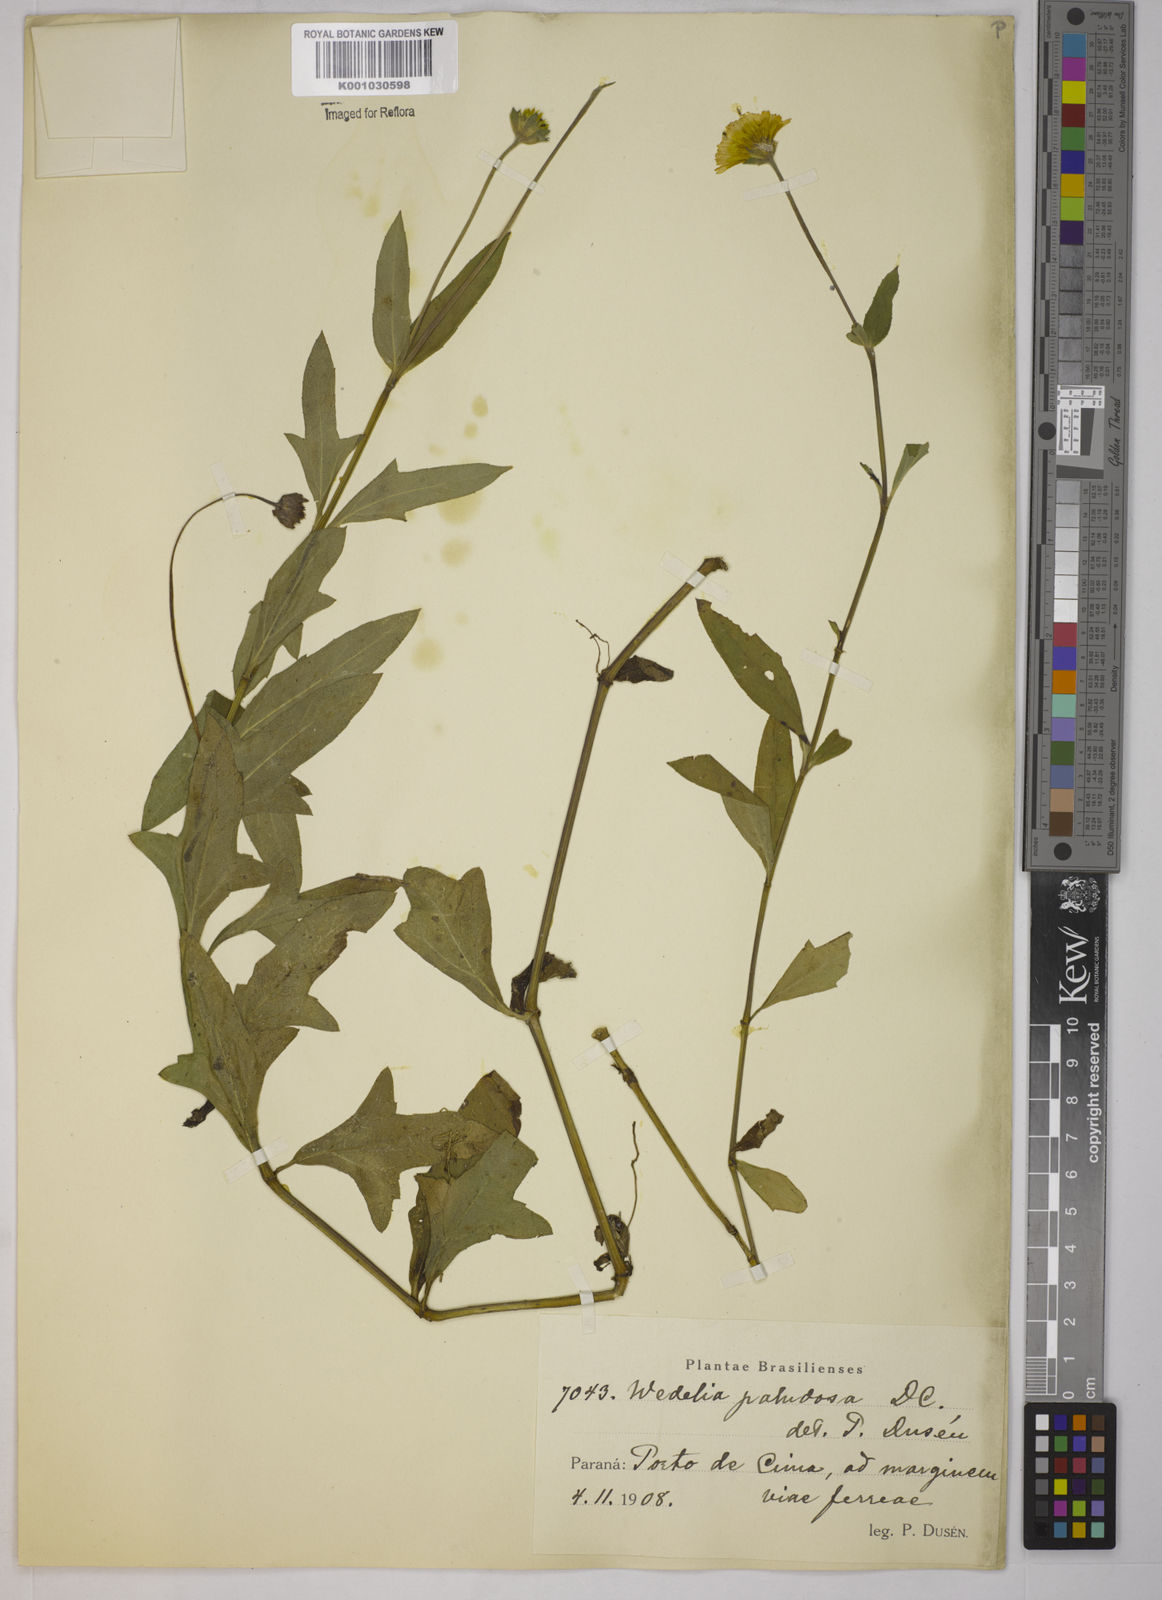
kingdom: Plantae
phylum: Tracheophyta
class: Magnoliopsida
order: Asterales
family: Asteraceae
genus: Sphagneticola
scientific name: Sphagneticola trilobata
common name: Bay biscayne creeping-oxeye
